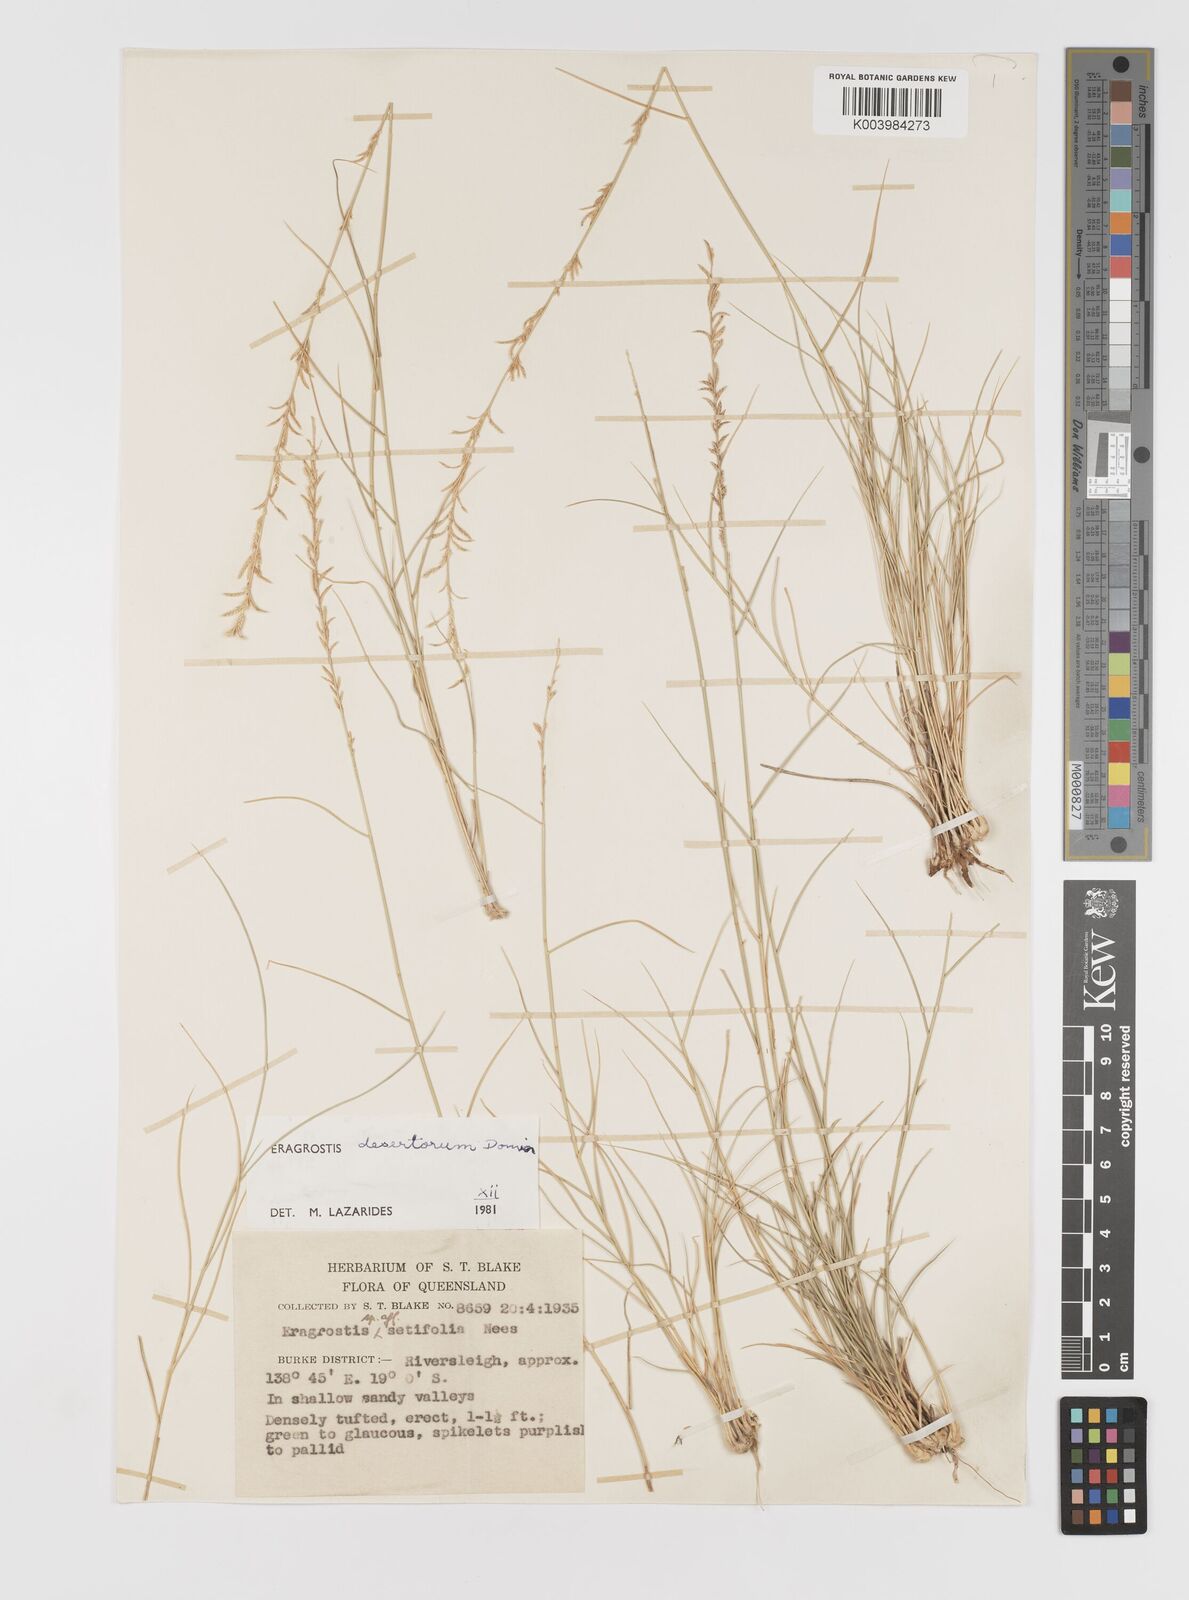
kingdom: Plantae
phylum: Tracheophyta
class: Liliopsida
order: Poales
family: Poaceae
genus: Eragrostis
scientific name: Eragrostis desertorum
